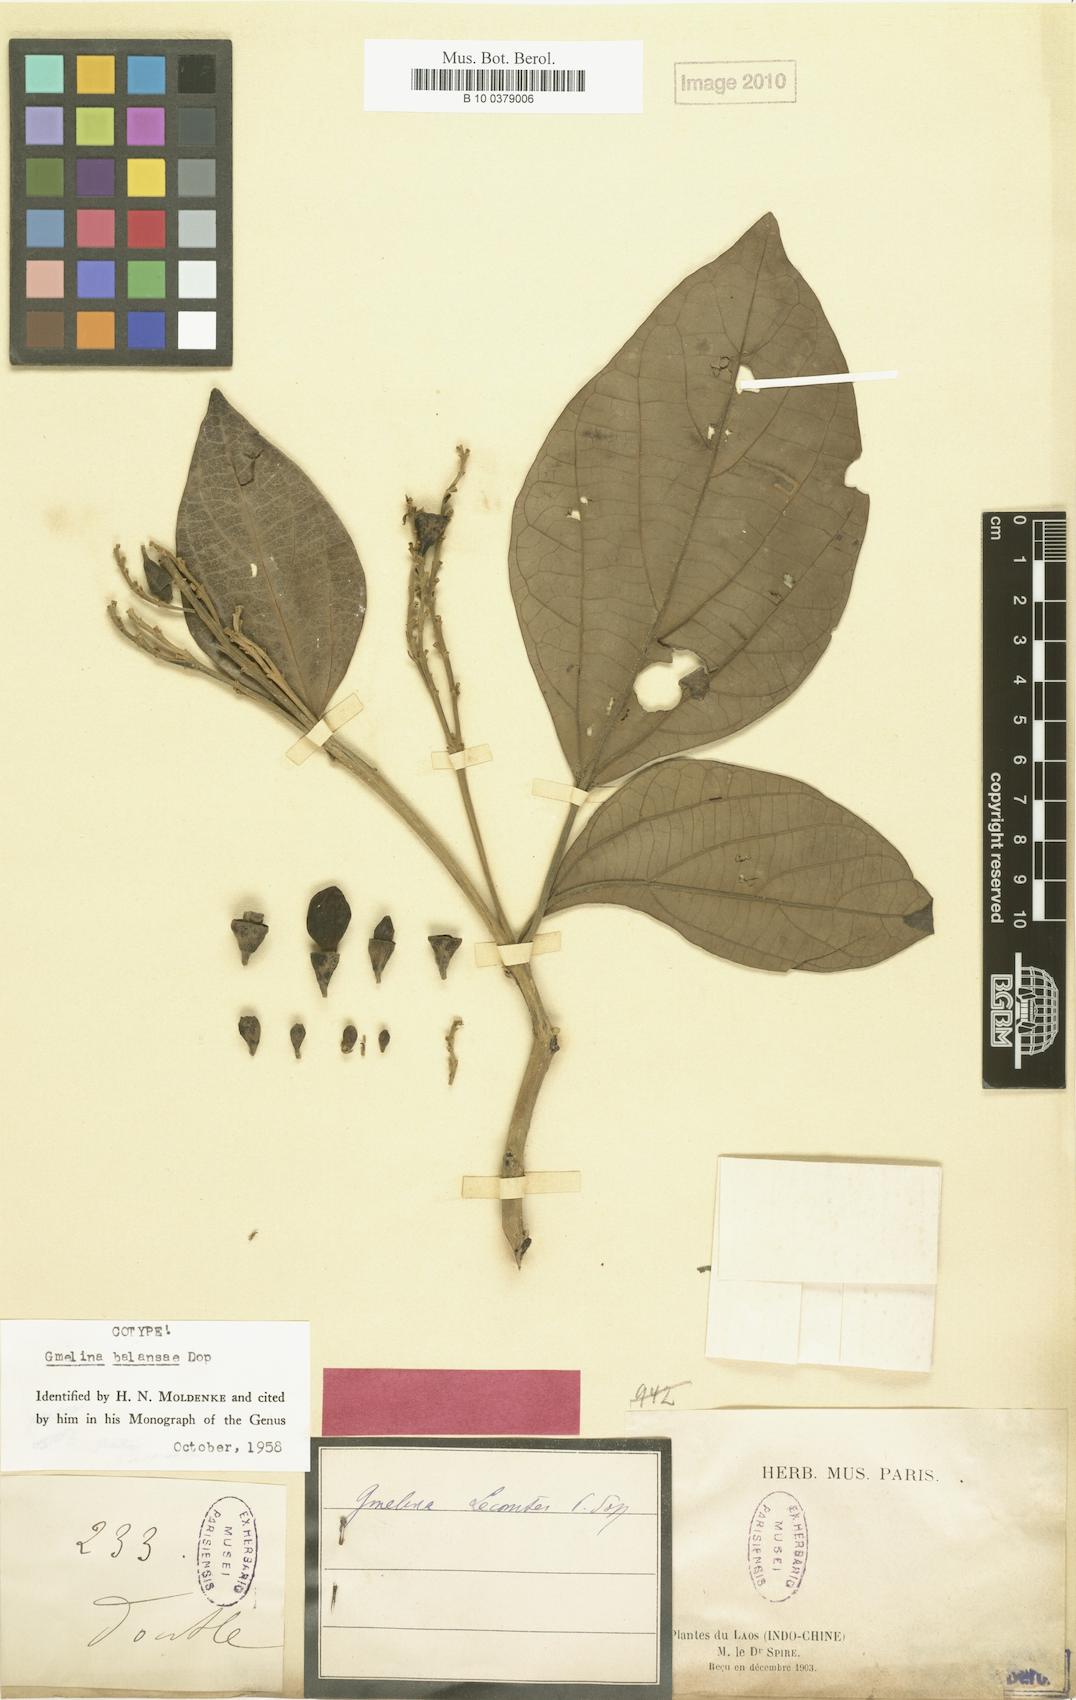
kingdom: Plantae
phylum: Tracheophyta
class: Magnoliopsida
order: Lamiales
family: Lamiaceae
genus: Gmelina
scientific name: Gmelina chinensis
